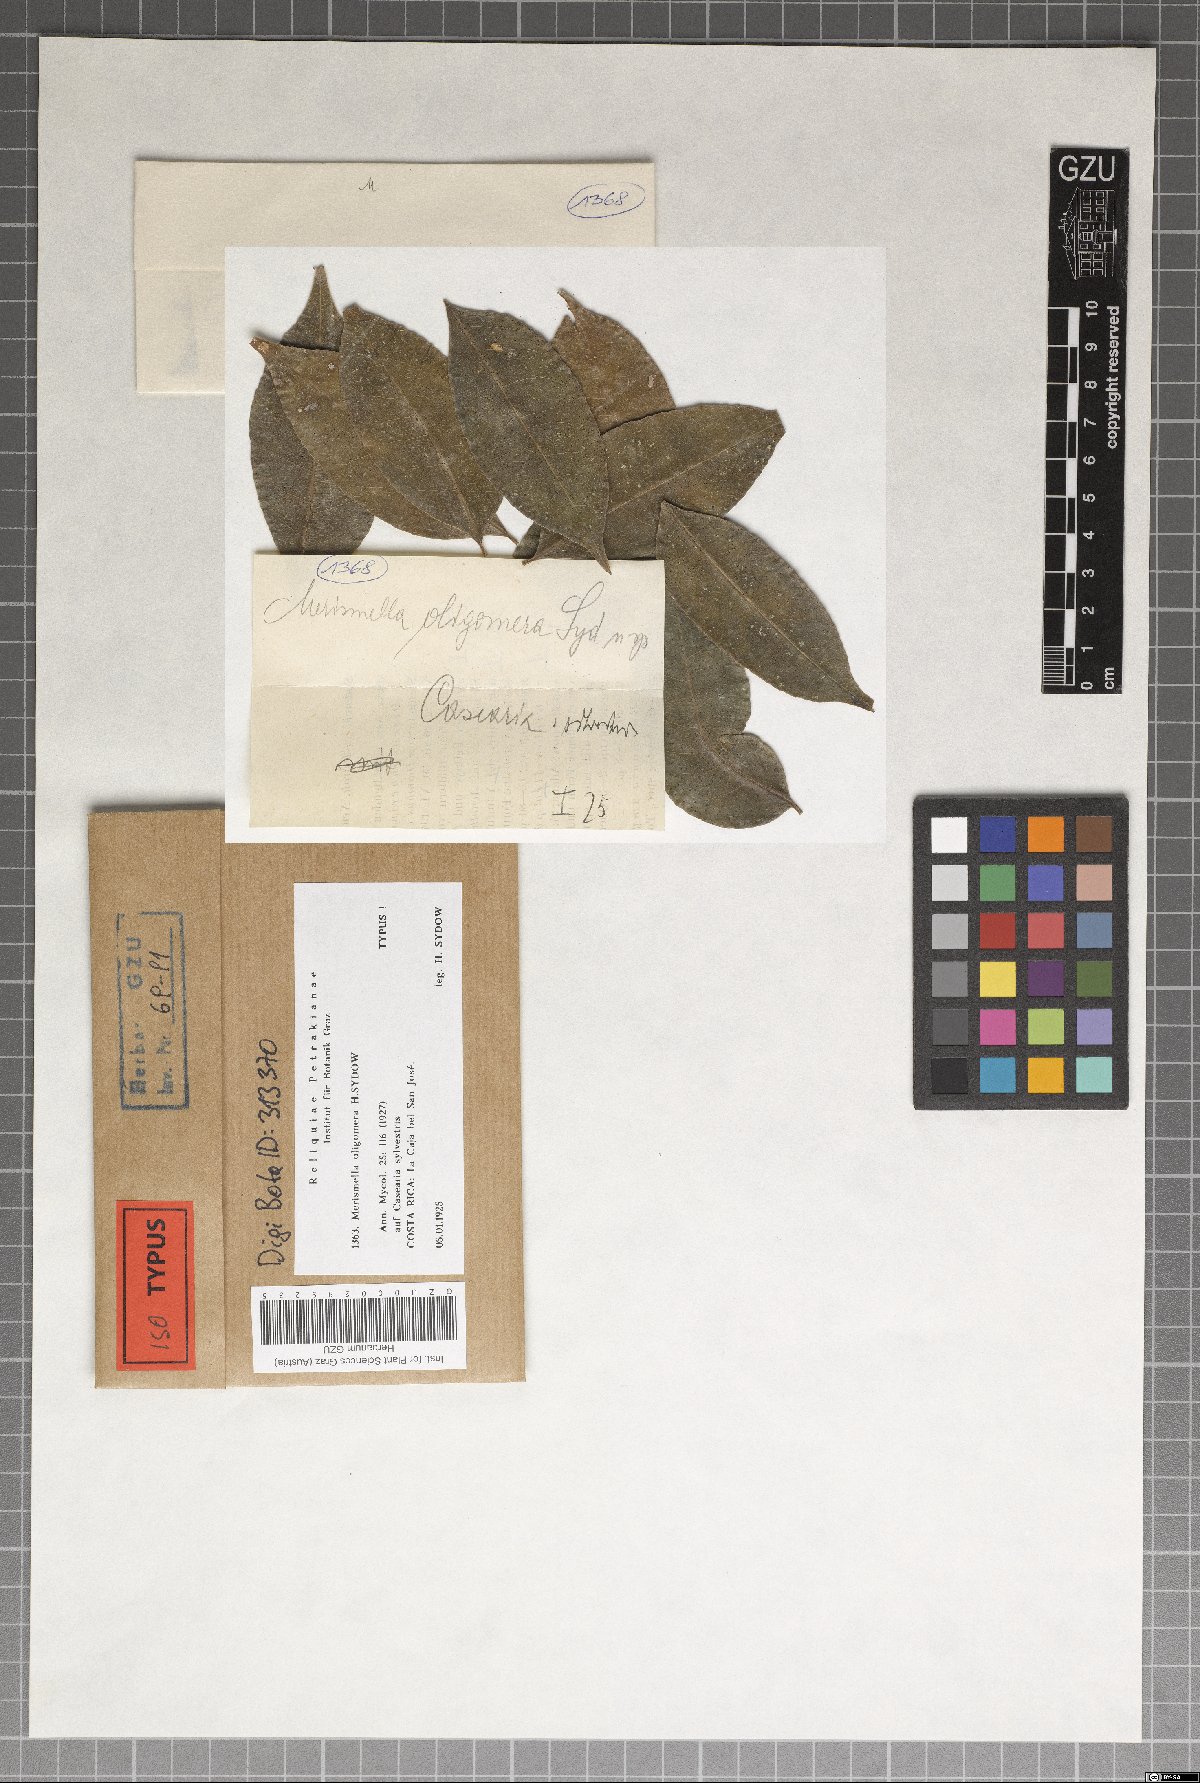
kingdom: Fungi
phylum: Ascomycota
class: Eurotiomycetes
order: Chaetothyriales
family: Chaetothyriaceae
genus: Merismella
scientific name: Merismella oligomera
